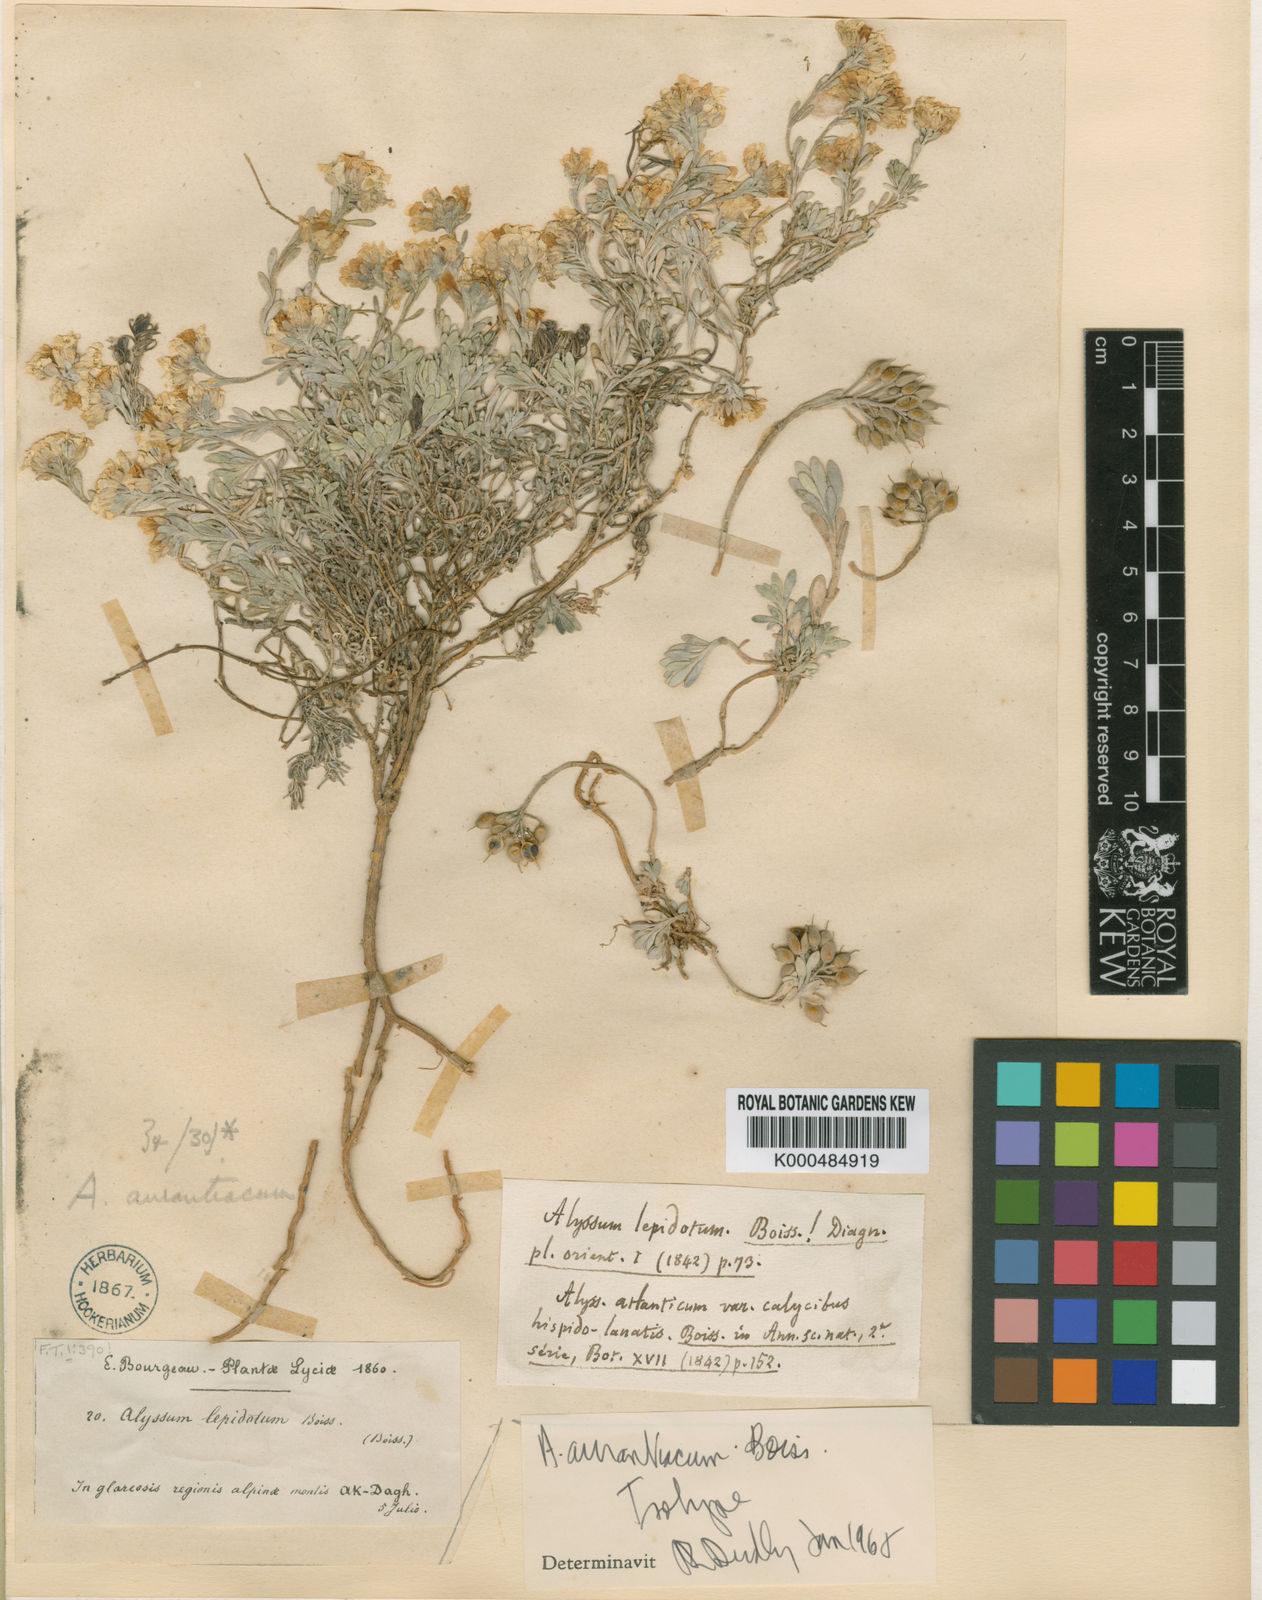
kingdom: Plantae
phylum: Tracheophyta
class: Magnoliopsida
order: Brassicales
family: Brassicaceae
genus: Alyssum
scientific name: Alyssum aurantiacum
